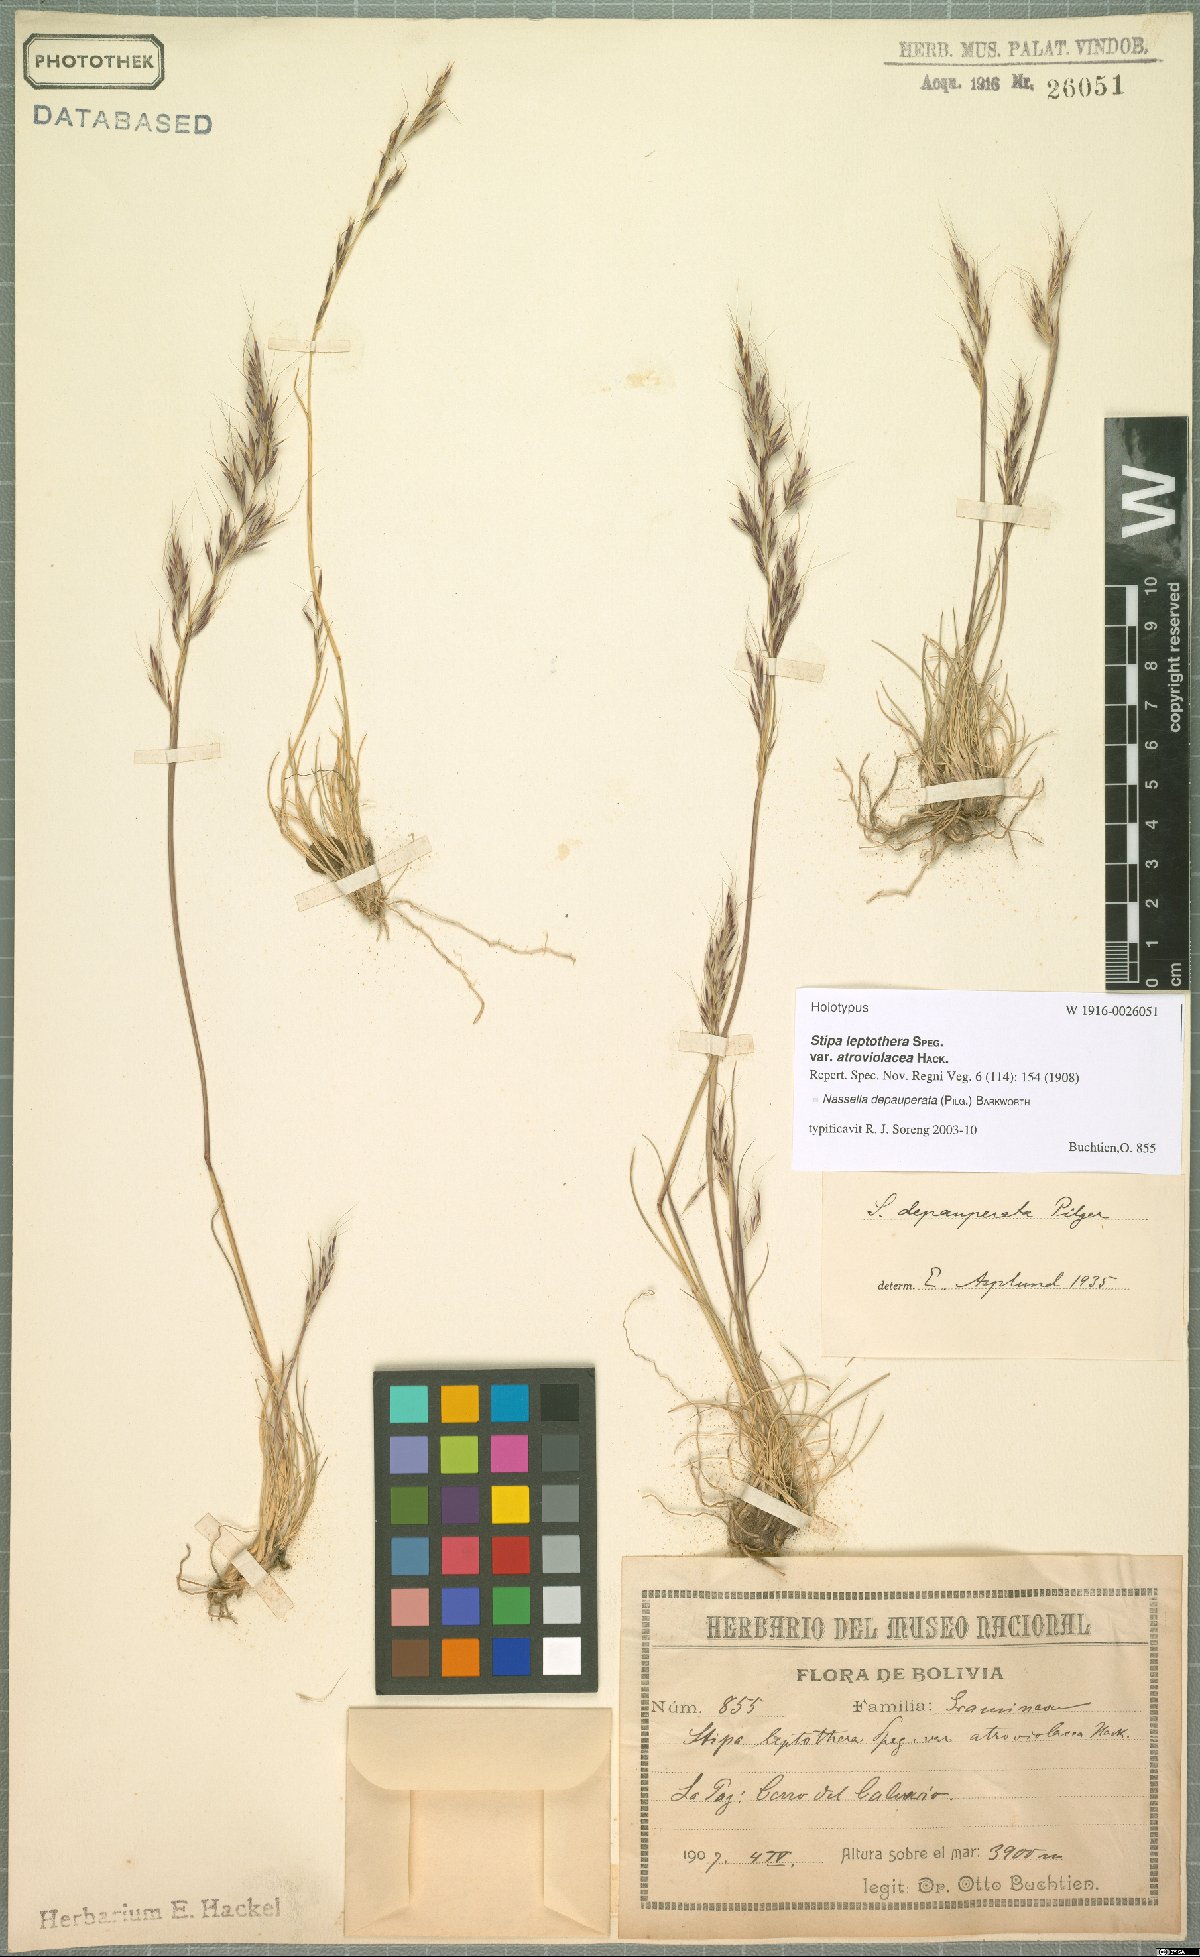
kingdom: Plantae
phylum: Tracheophyta
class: Liliopsida
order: Poales
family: Poaceae
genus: Nassella
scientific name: Nassella depauperata
